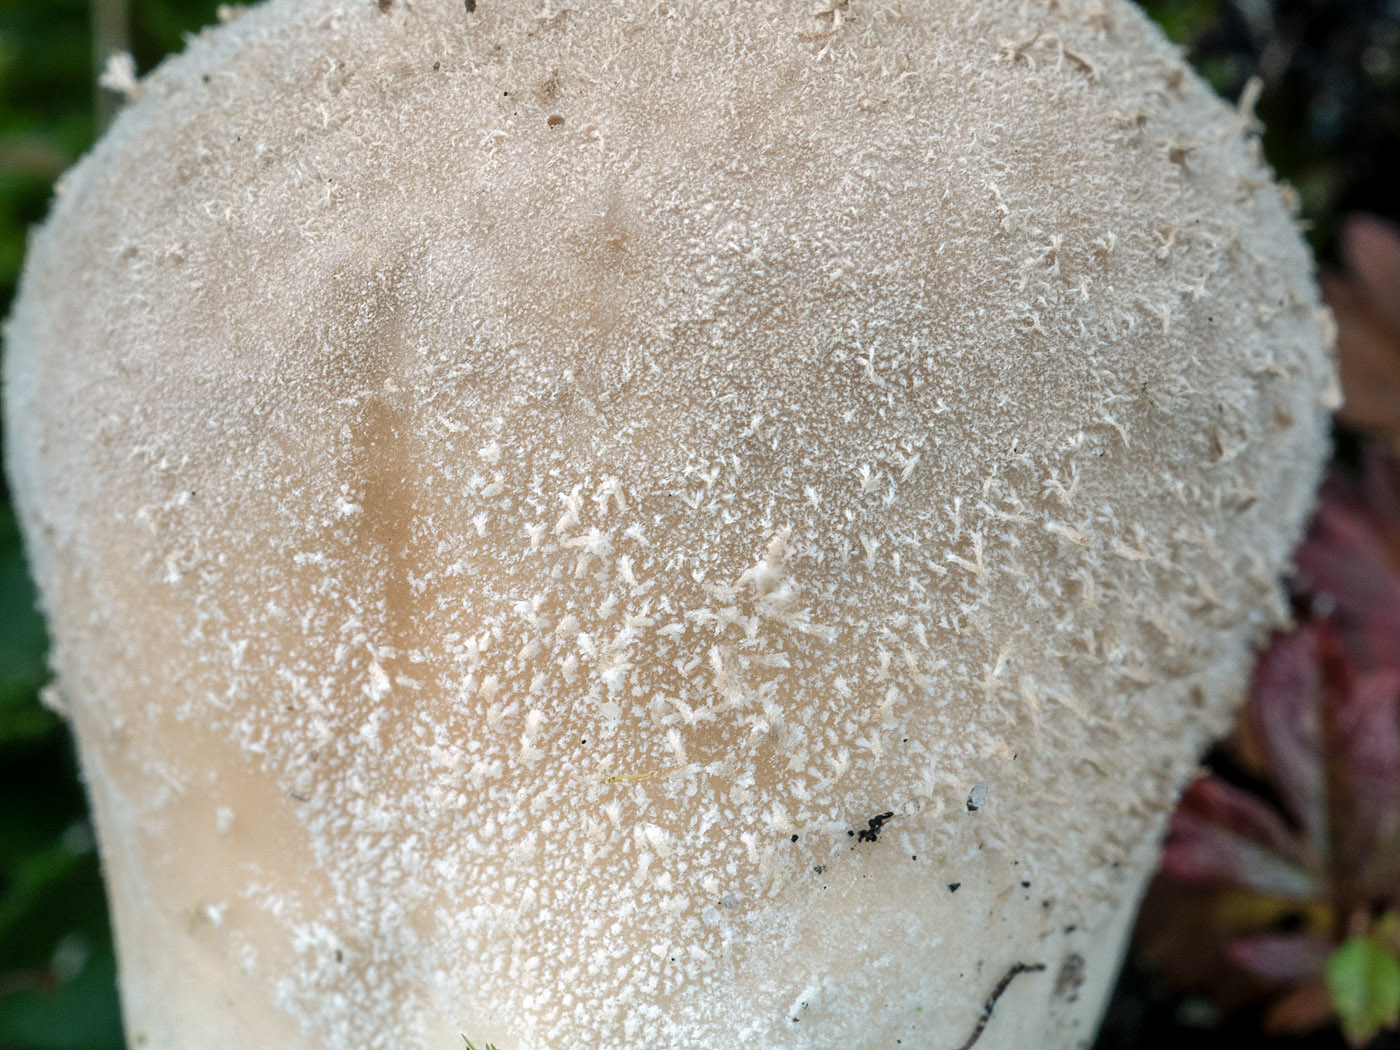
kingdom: Fungi
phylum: Basidiomycota
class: Agaricomycetes
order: Agaricales
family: Lycoperdaceae
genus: Lycoperdon
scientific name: Lycoperdon ericaeum
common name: hede-støvbold
